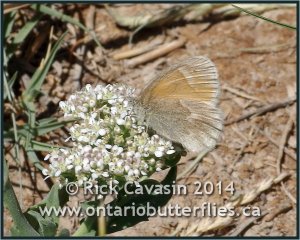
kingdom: Animalia
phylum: Arthropoda
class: Insecta
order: Lepidoptera
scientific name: Lepidoptera
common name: Butterflies
